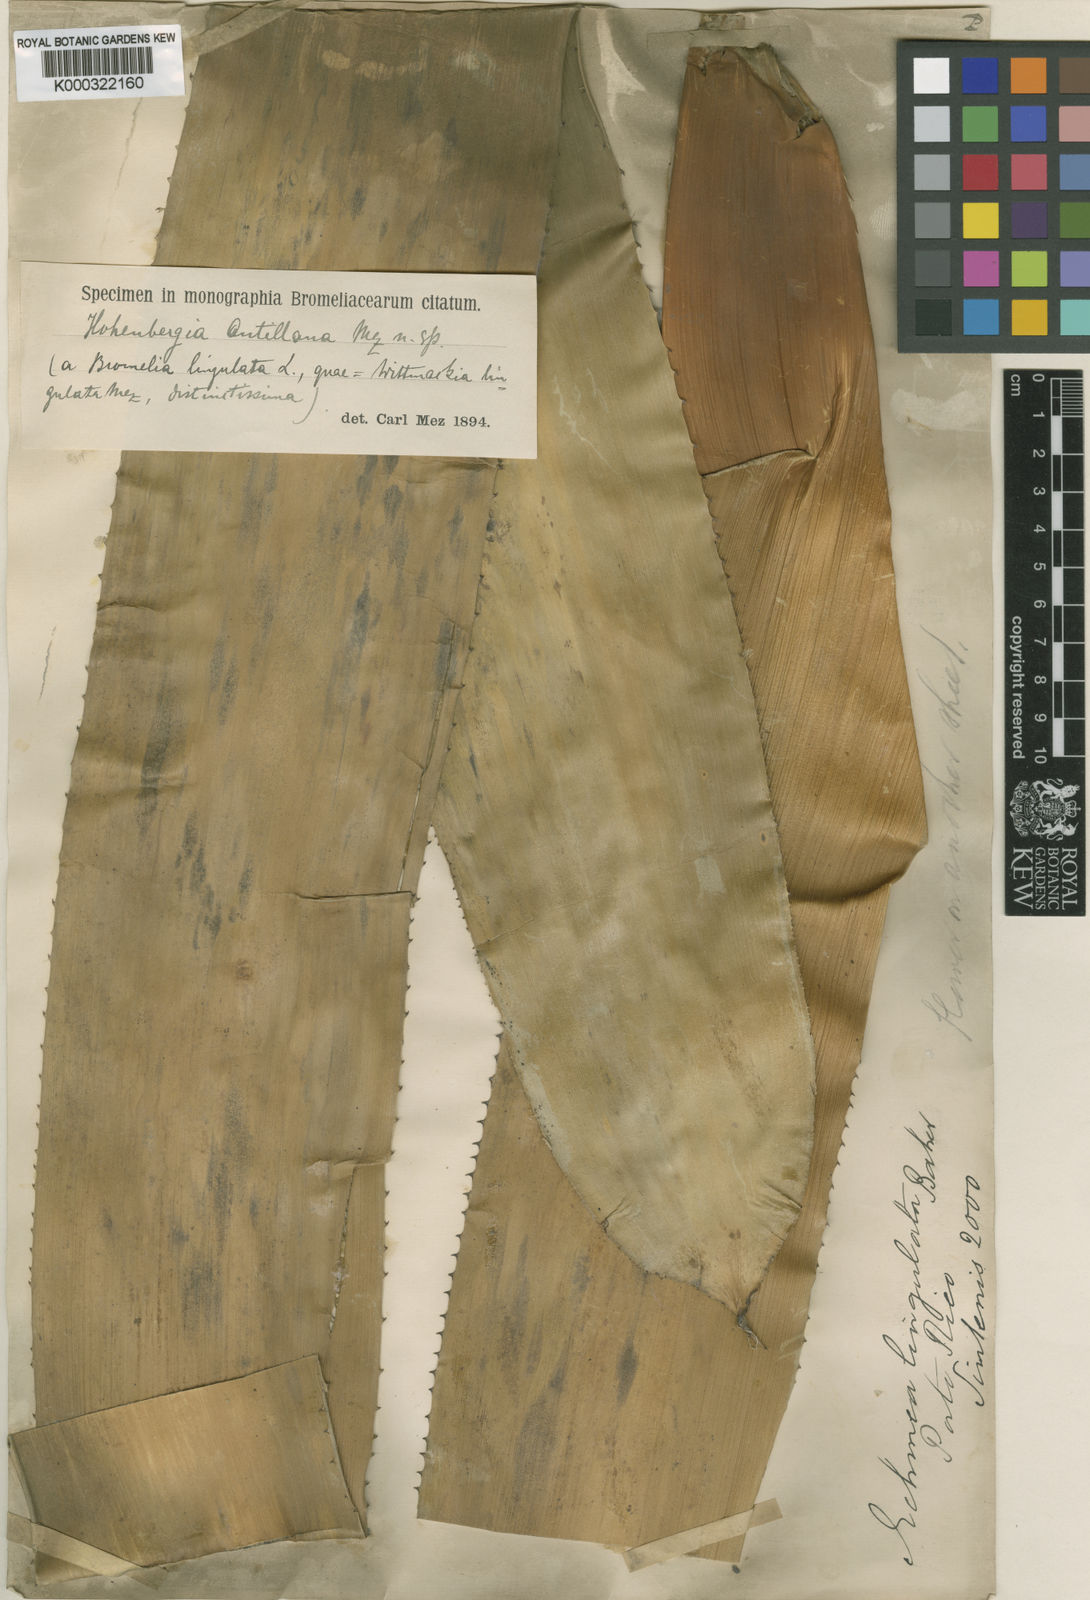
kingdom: Plantae
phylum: Tracheophyta
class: Liliopsida
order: Poales
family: Bromeliaceae
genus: Wittmackia
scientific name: Wittmackia antillana
